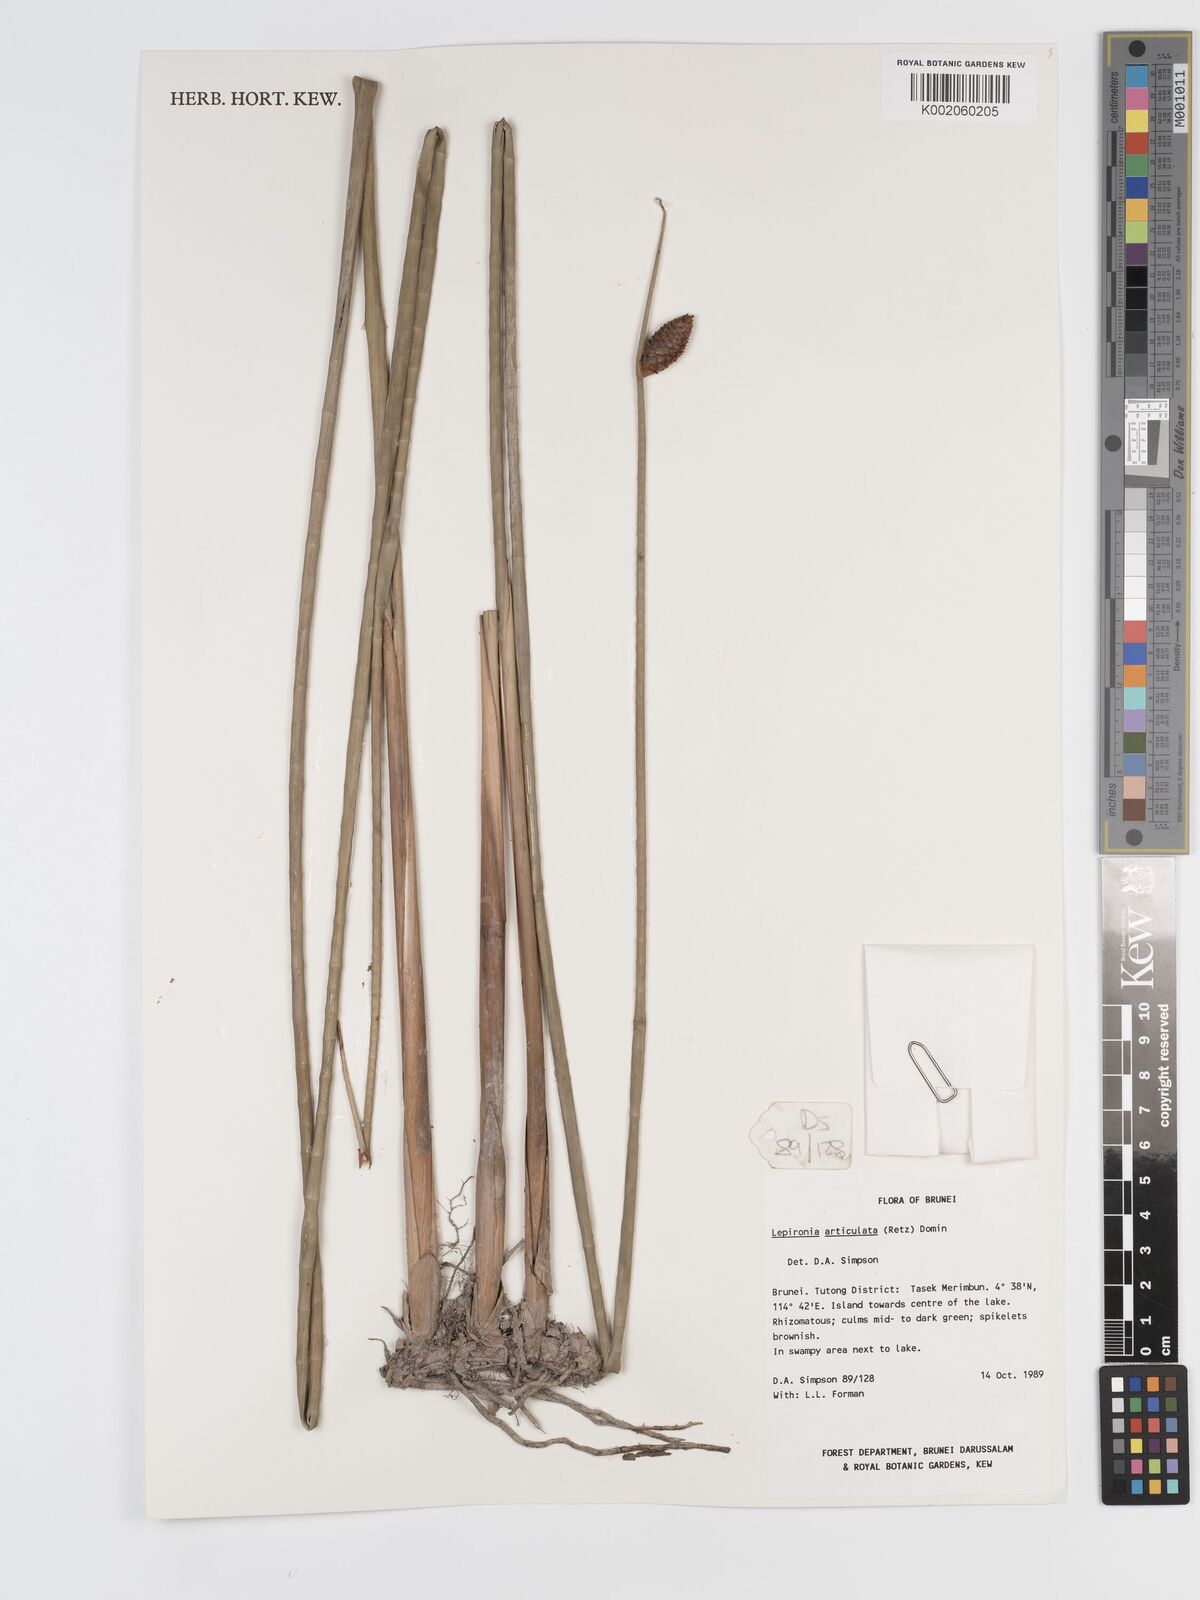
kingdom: Plantae
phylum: Tracheophyta
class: Liliopsida
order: Poales
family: Cyperaceae
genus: Lepironia
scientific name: Lepironia articulata
